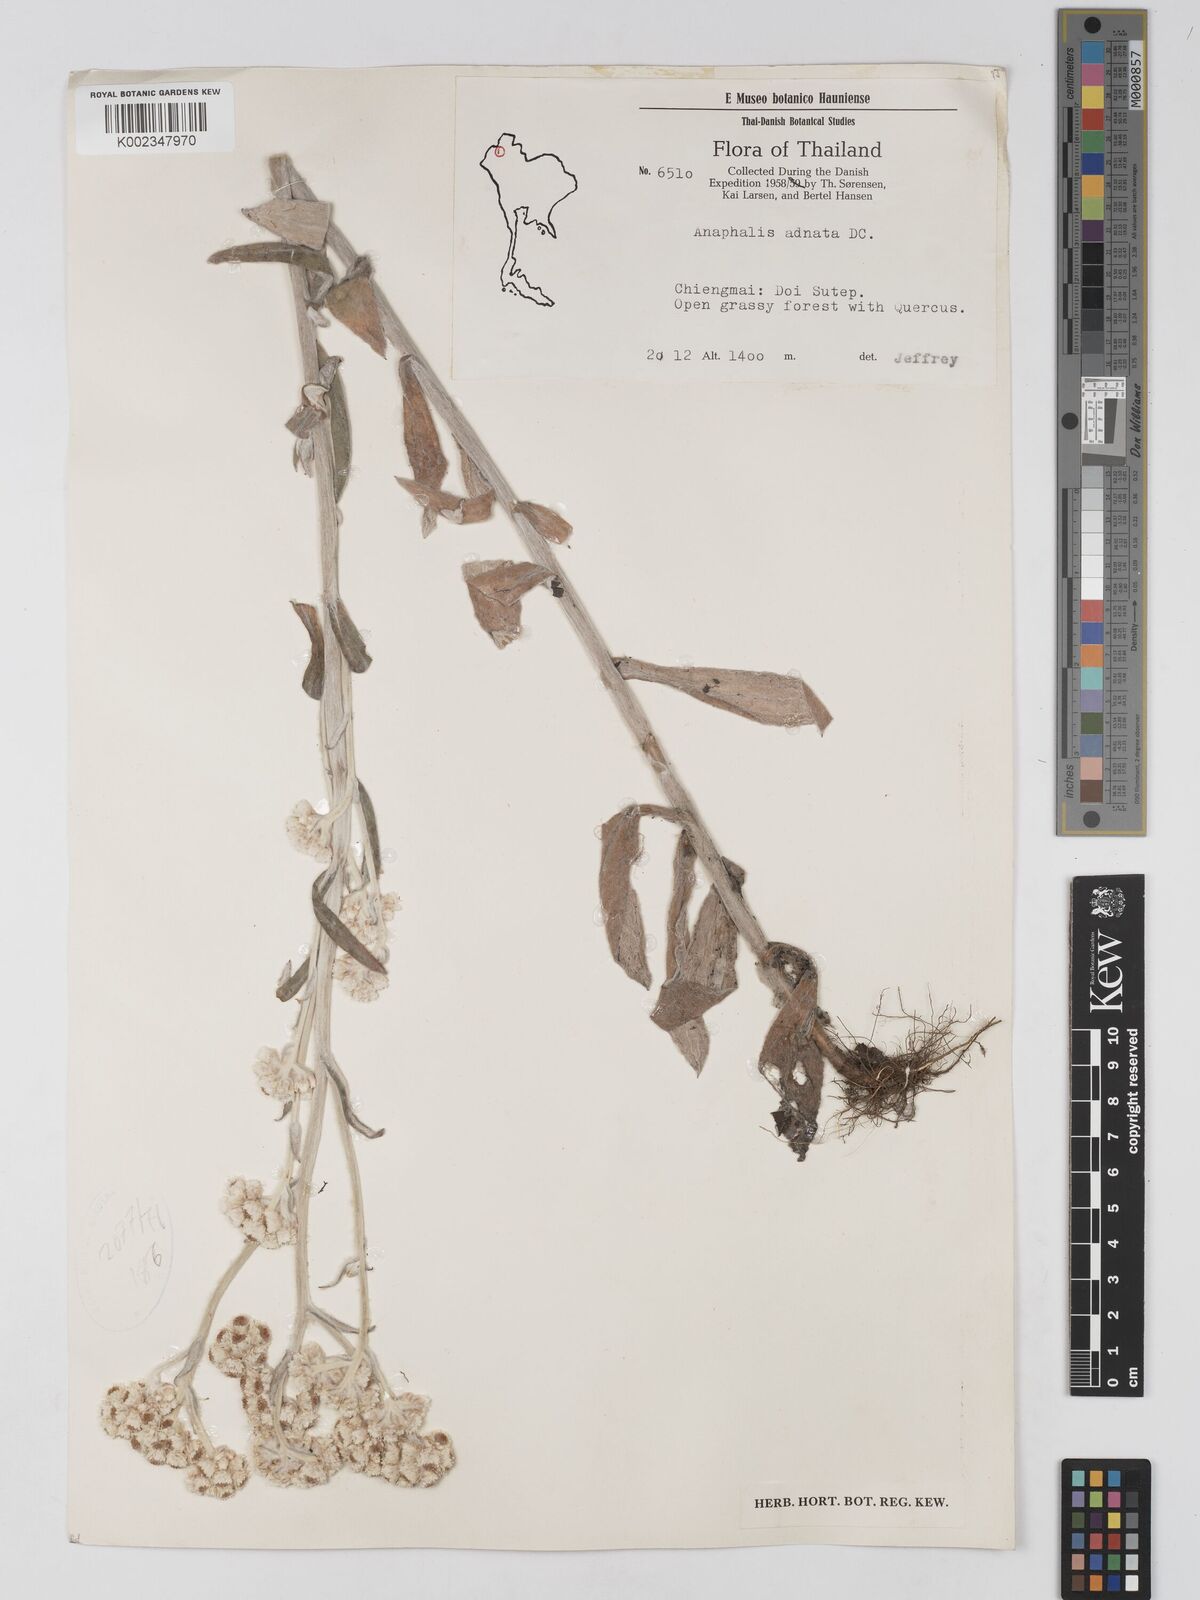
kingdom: Plantae
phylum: Tracheophyta
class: Magnoliopsida
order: Asterales
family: Asteraceae
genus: Pseudognaphalium
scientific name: Pseudognaphalium adnatum
